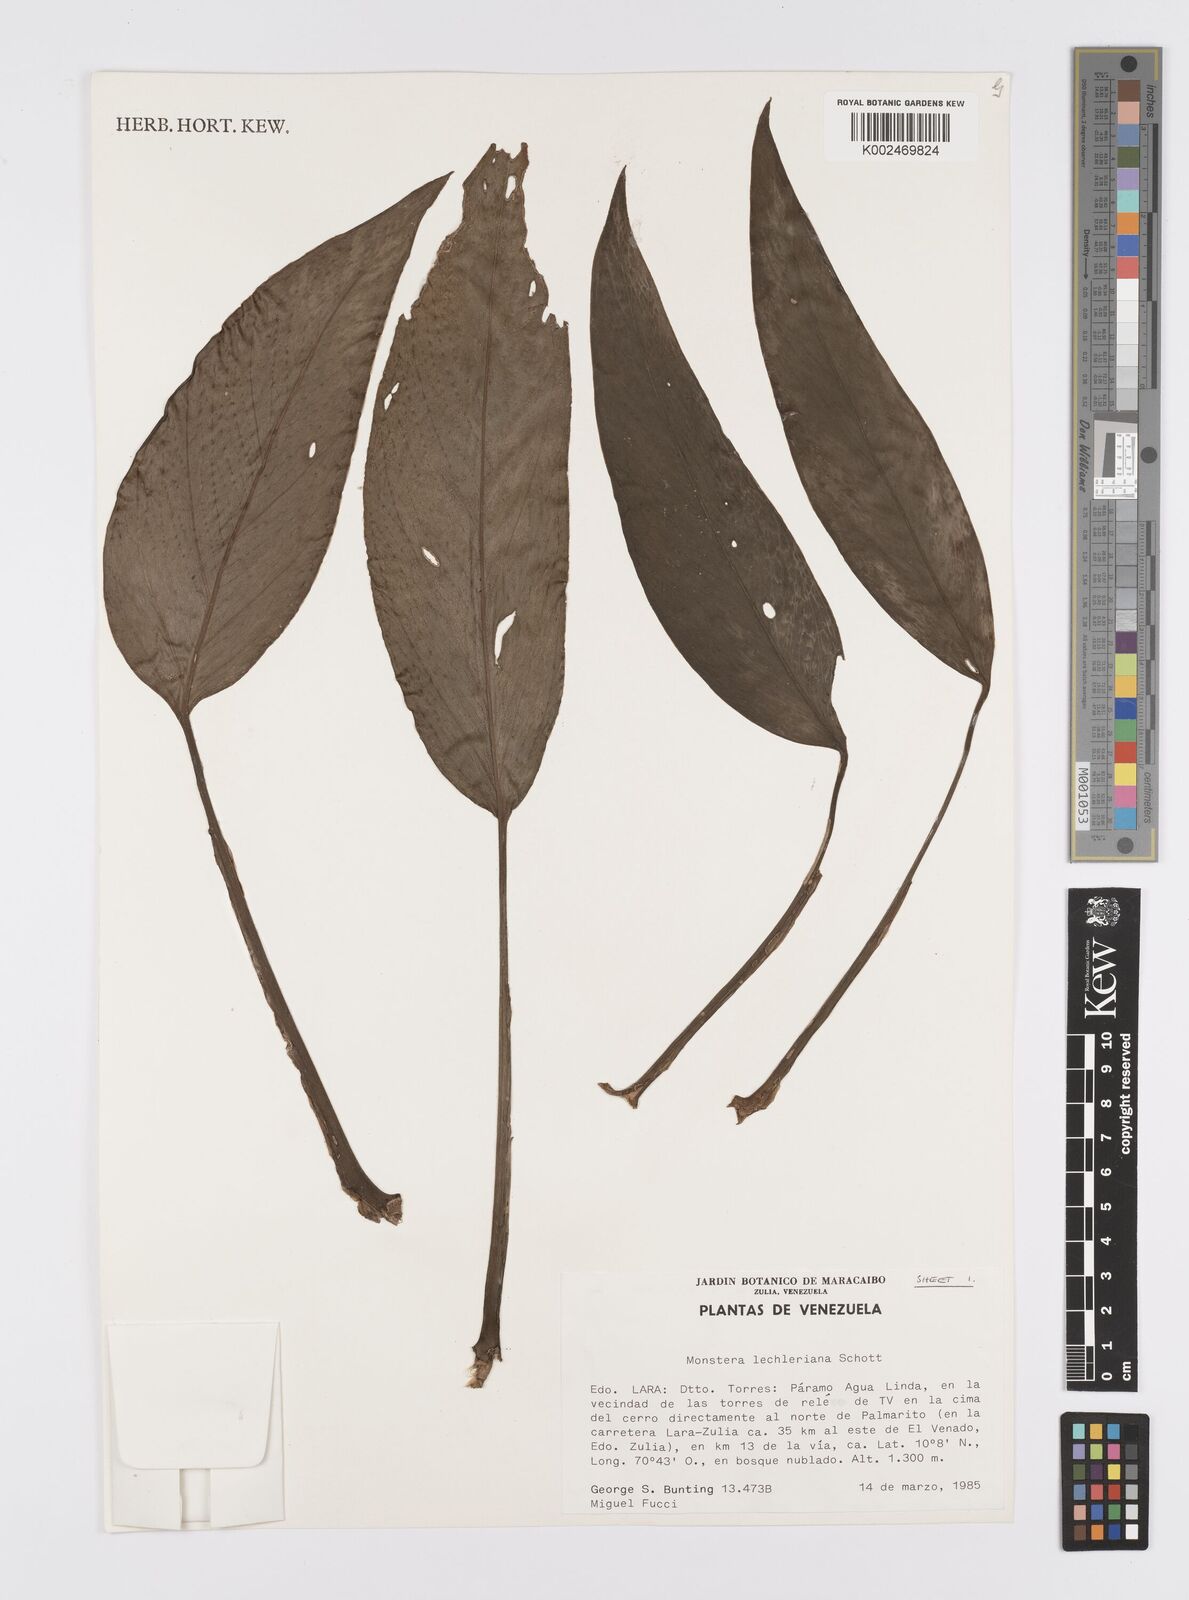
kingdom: Plantae
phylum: Tracheophyta
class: Liliopsida
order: Alismatales
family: Araceae
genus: Monstera
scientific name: Monstera lechleriana
